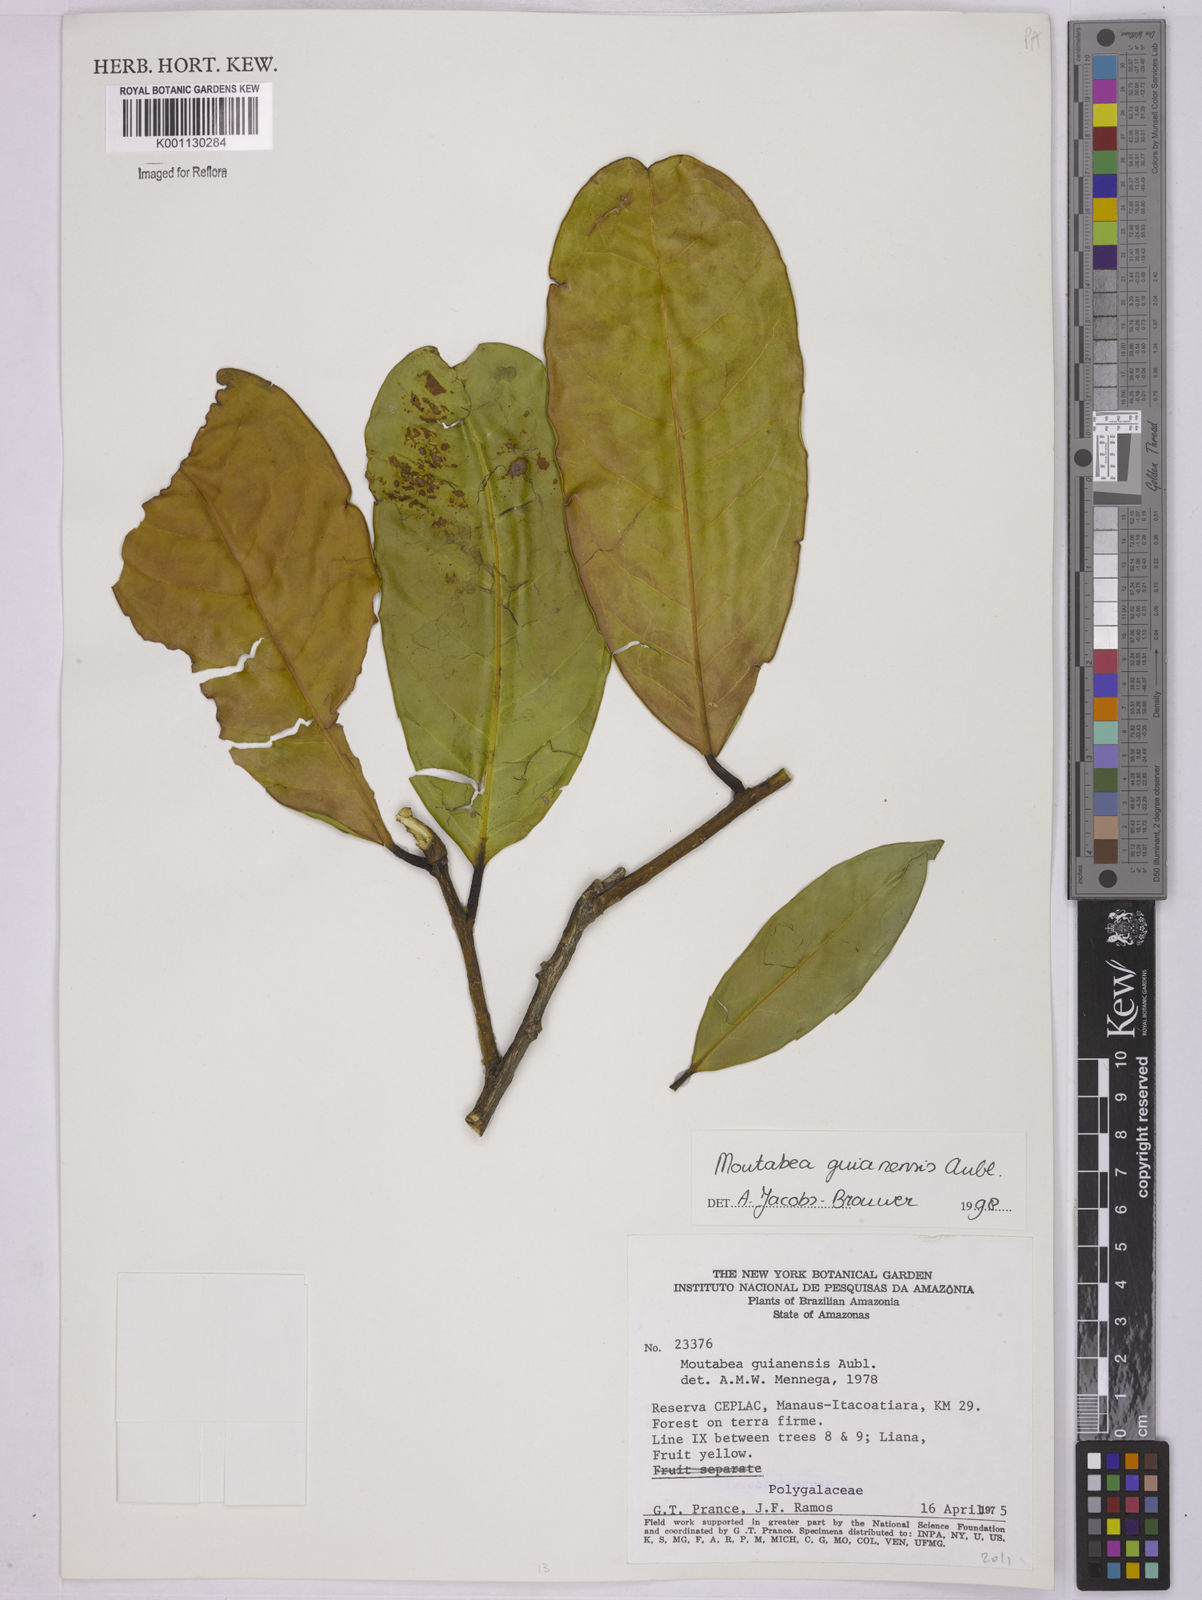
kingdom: Plantae
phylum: Tracheophyta
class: Magnoliopsida
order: Fabales
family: Polygalaceae
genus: Moutabea
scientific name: Moutabea guianensis
